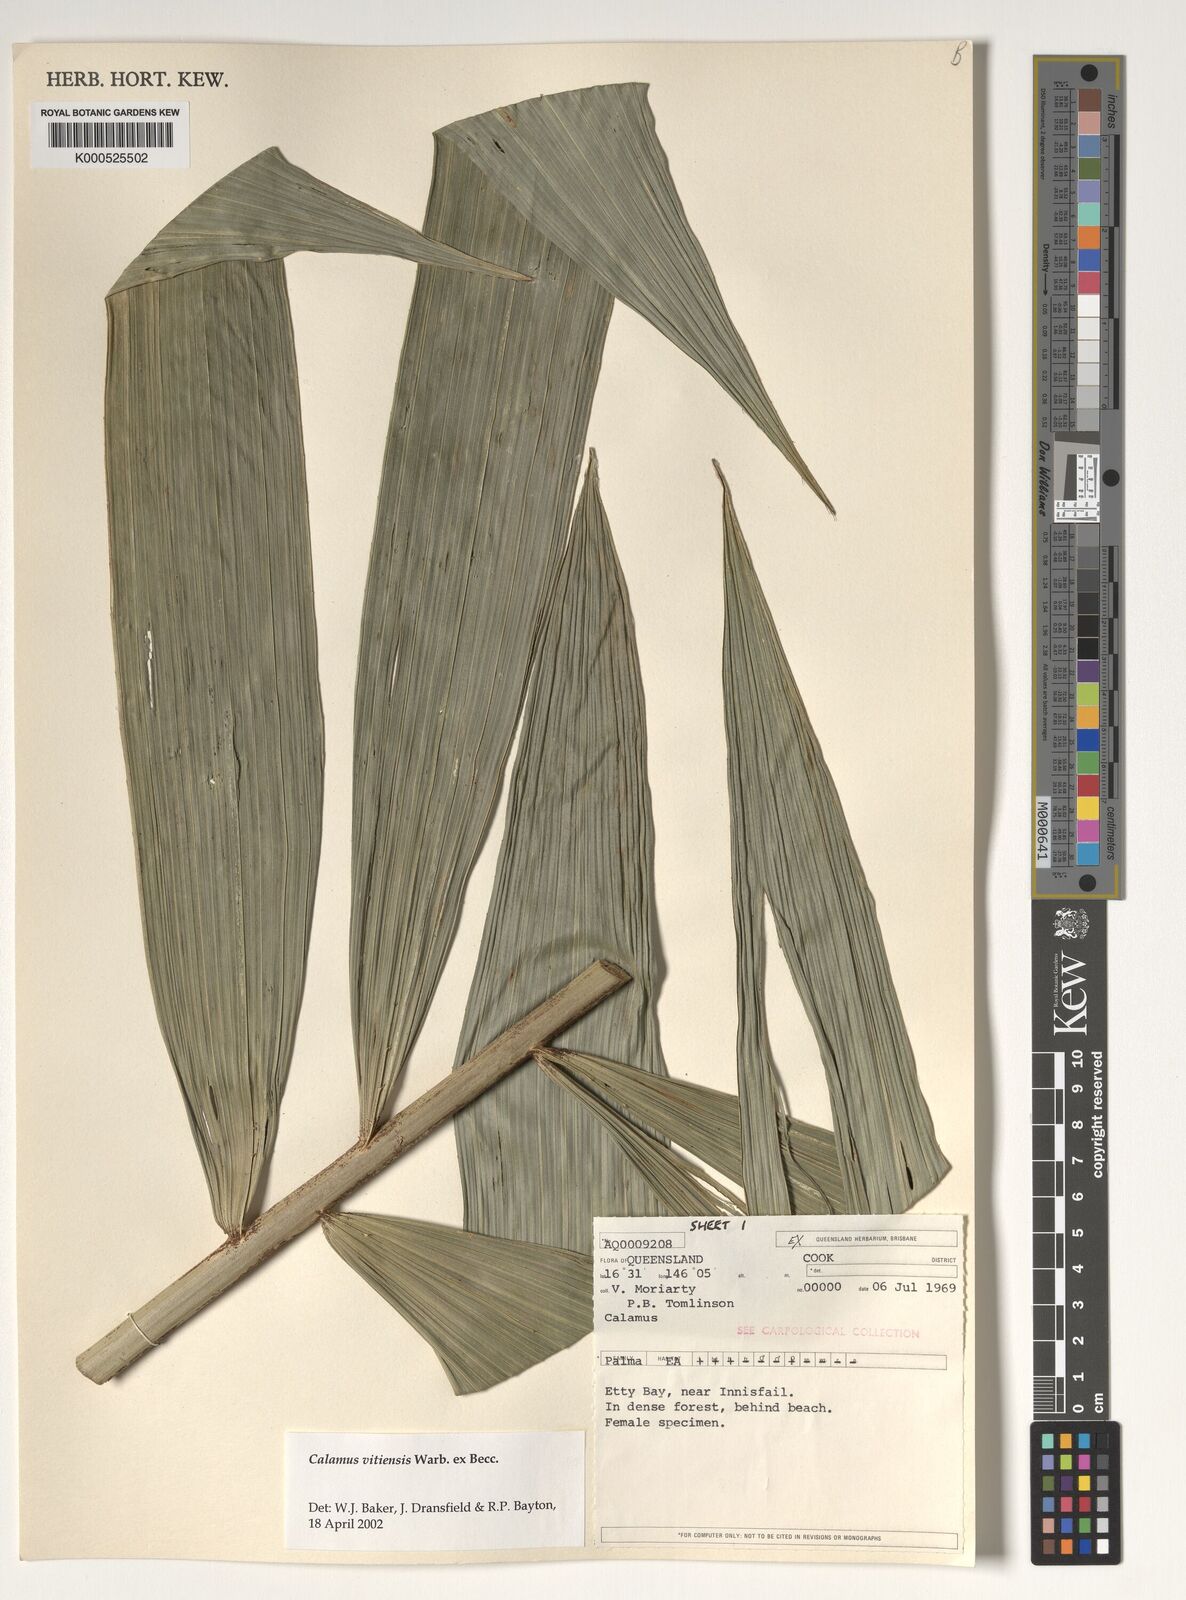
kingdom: Plantae
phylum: Tracheophyta
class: Liliopsida
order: Arecales
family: Arecaceae
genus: Calamus
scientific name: Calamus vitiensis
